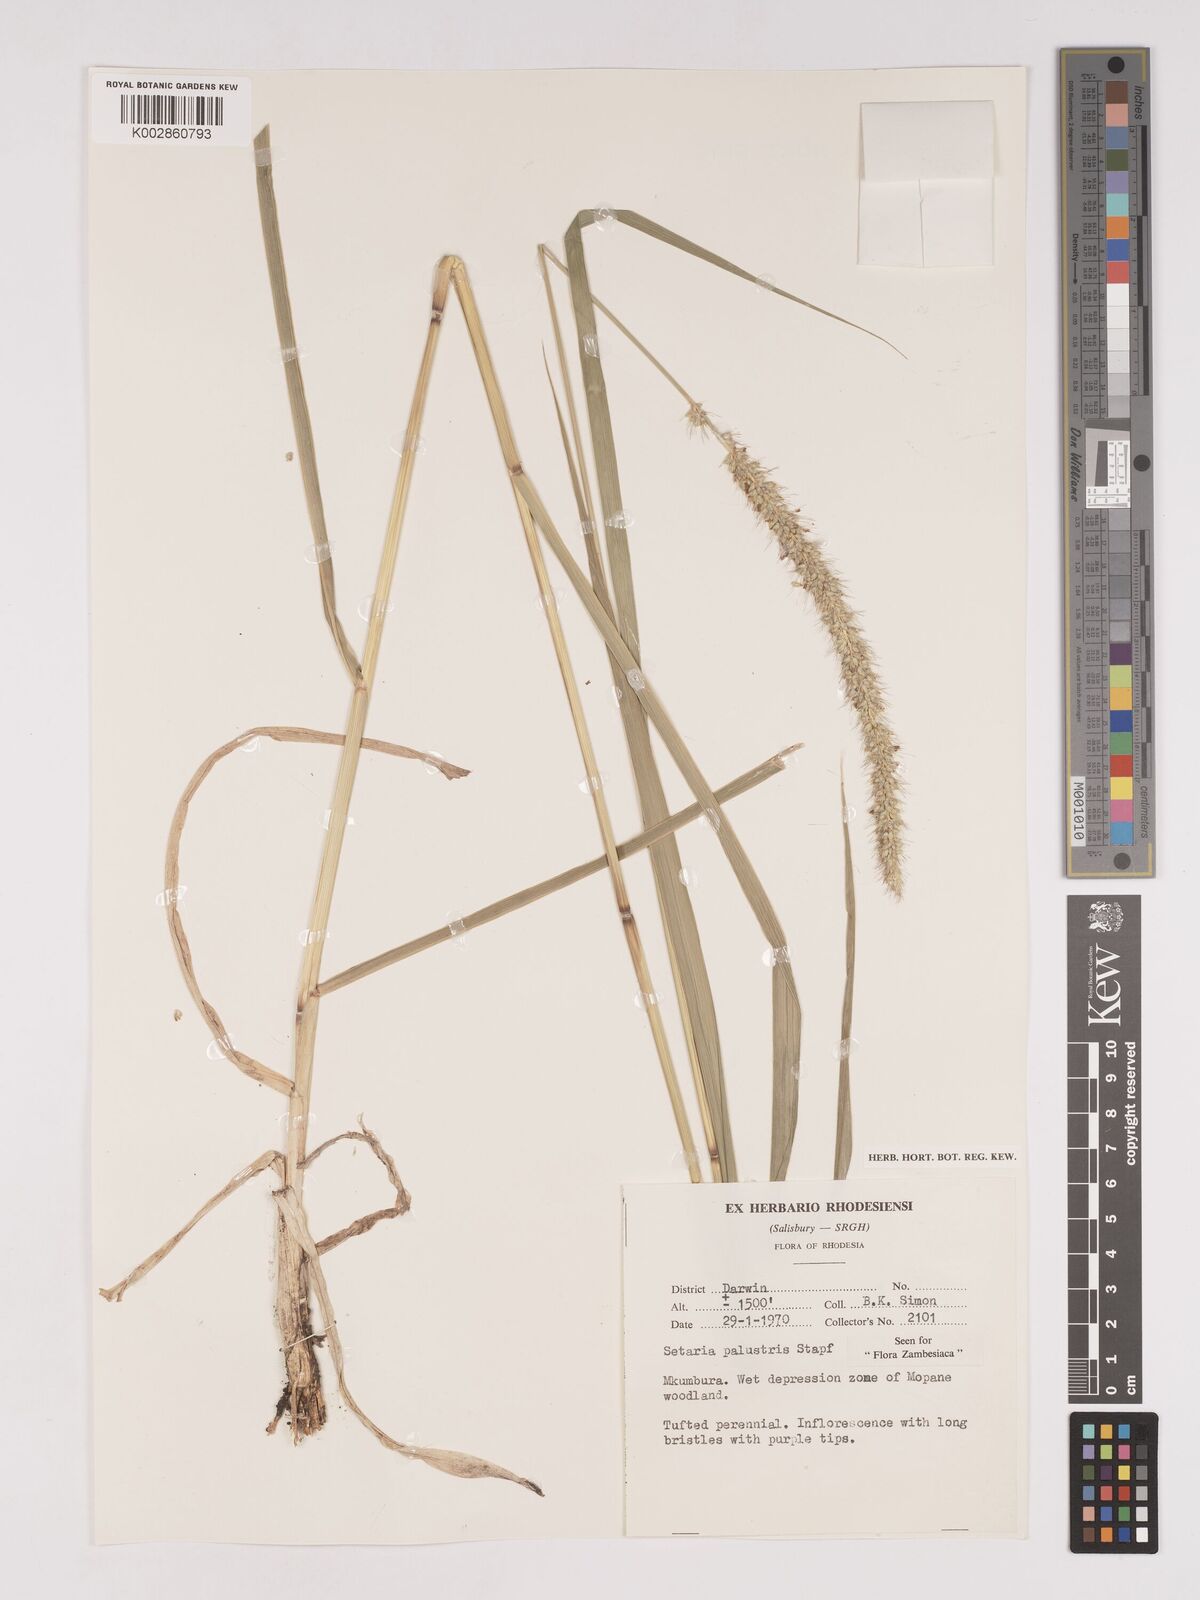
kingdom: Plantae
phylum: Tracheophyta
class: Liliopsida
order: Poales
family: Poaceae
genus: Setaria
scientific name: Setaria incrassata
